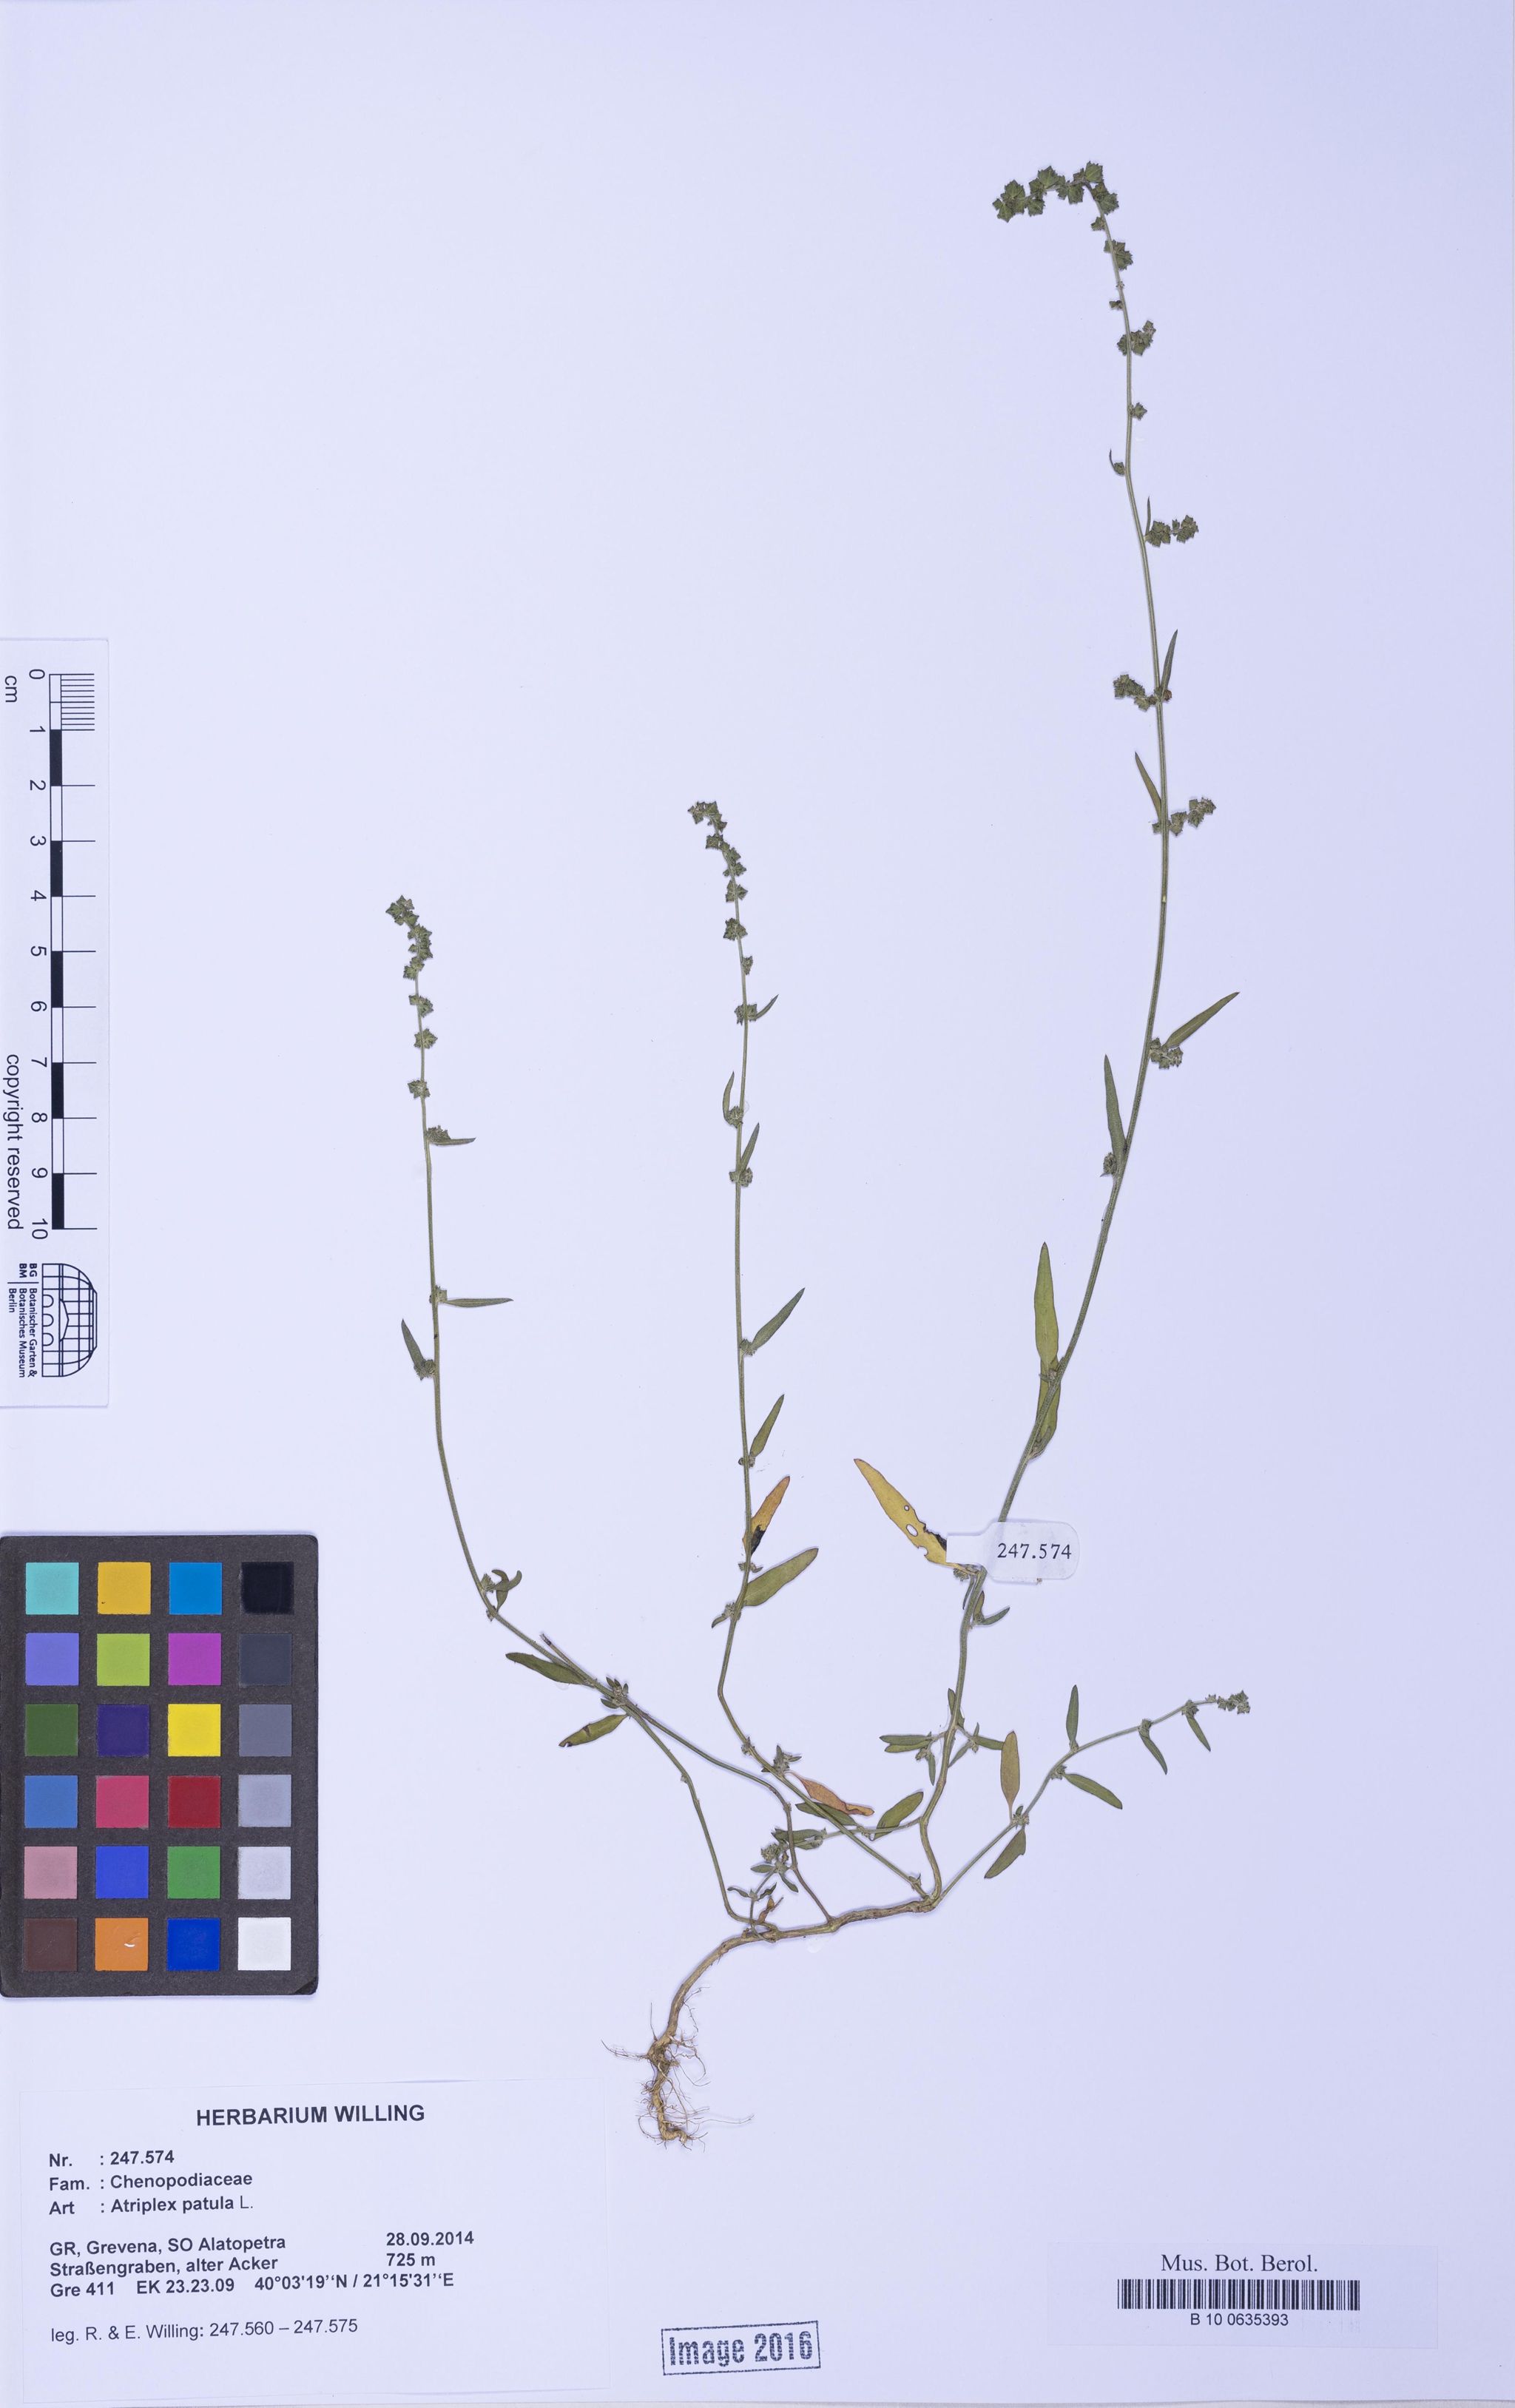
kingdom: Plantae
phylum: Tracheophyta
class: Magnoliopsida
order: Caryophyllales
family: Amaranthaceae
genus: Atriplex
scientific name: Atriplex patula
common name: Common orache
